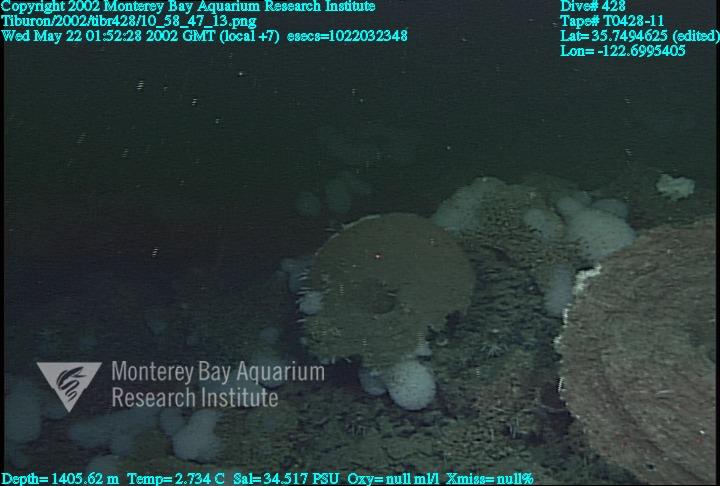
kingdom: Animalia
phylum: Porifera
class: Hexactinellida
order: Sceptrulophora
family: Euretidae
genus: Chonelasma
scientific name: Chonelasma
